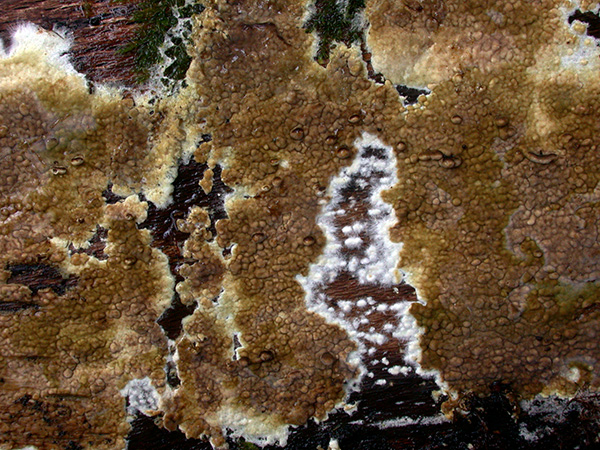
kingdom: Fungi
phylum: Basidiomycota
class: Agaricomycetes
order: Boletales
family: Coniophoraceae
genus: Coniophora
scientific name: Coniophora puteana
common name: gul tømmersvamp
